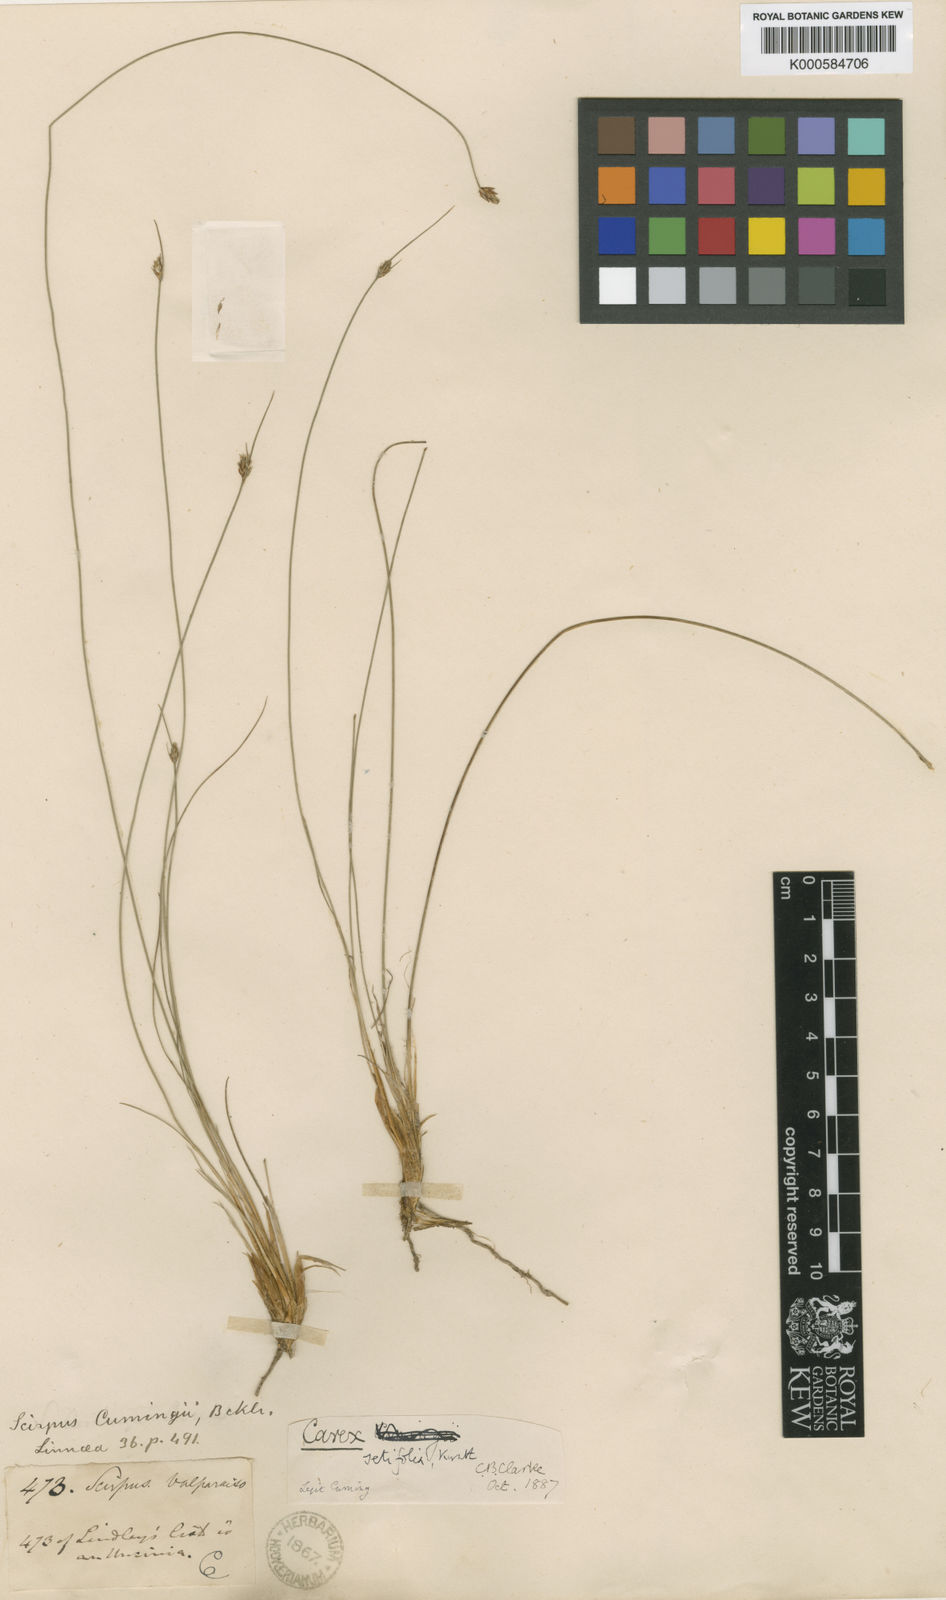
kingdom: Plantae
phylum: Tracheophyta
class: Liliopsida
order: Poales
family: Cyperaceae
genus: Carex
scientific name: Carex setifolia
